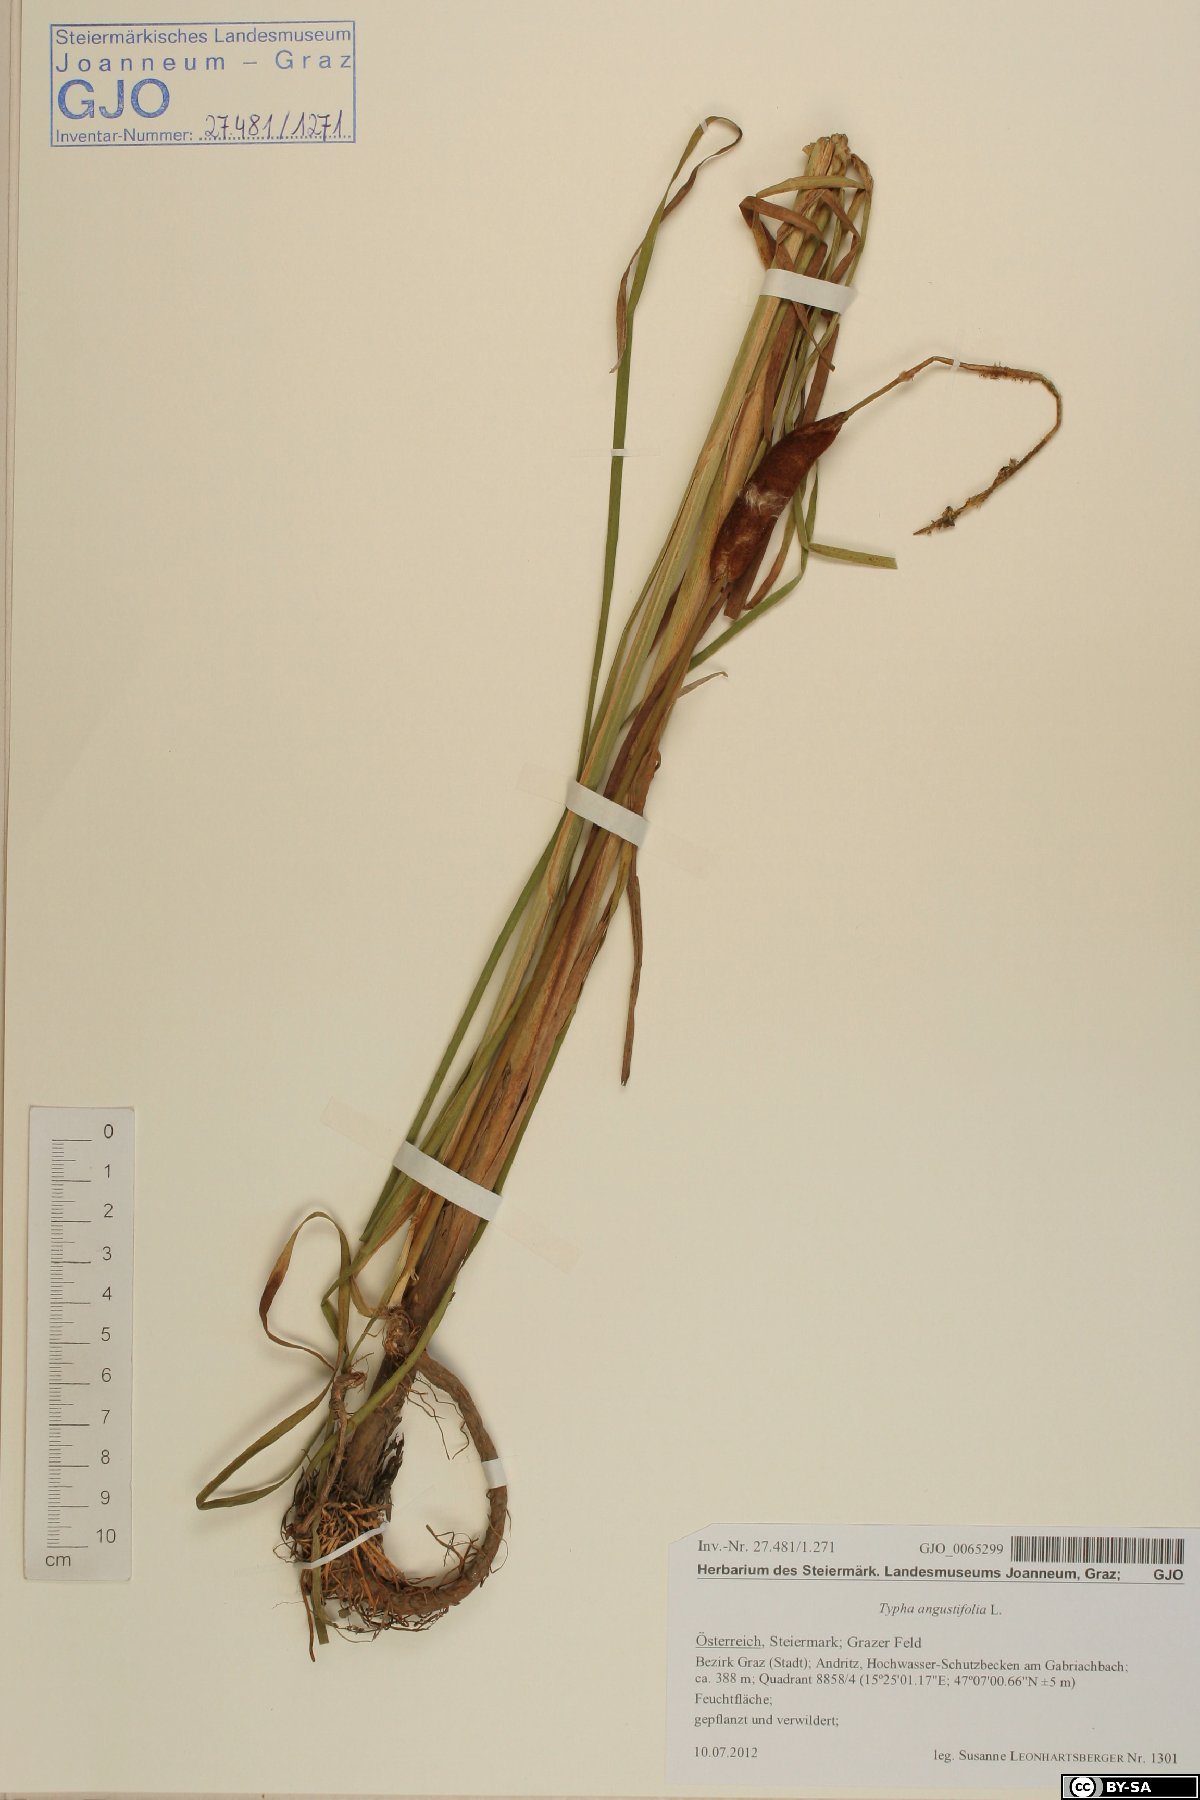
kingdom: Plantae
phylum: Tracheophyta
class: Liliopsida
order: Poales
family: Typhaceae
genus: Typha
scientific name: Typha angustifolia
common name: Lesser bulrush
